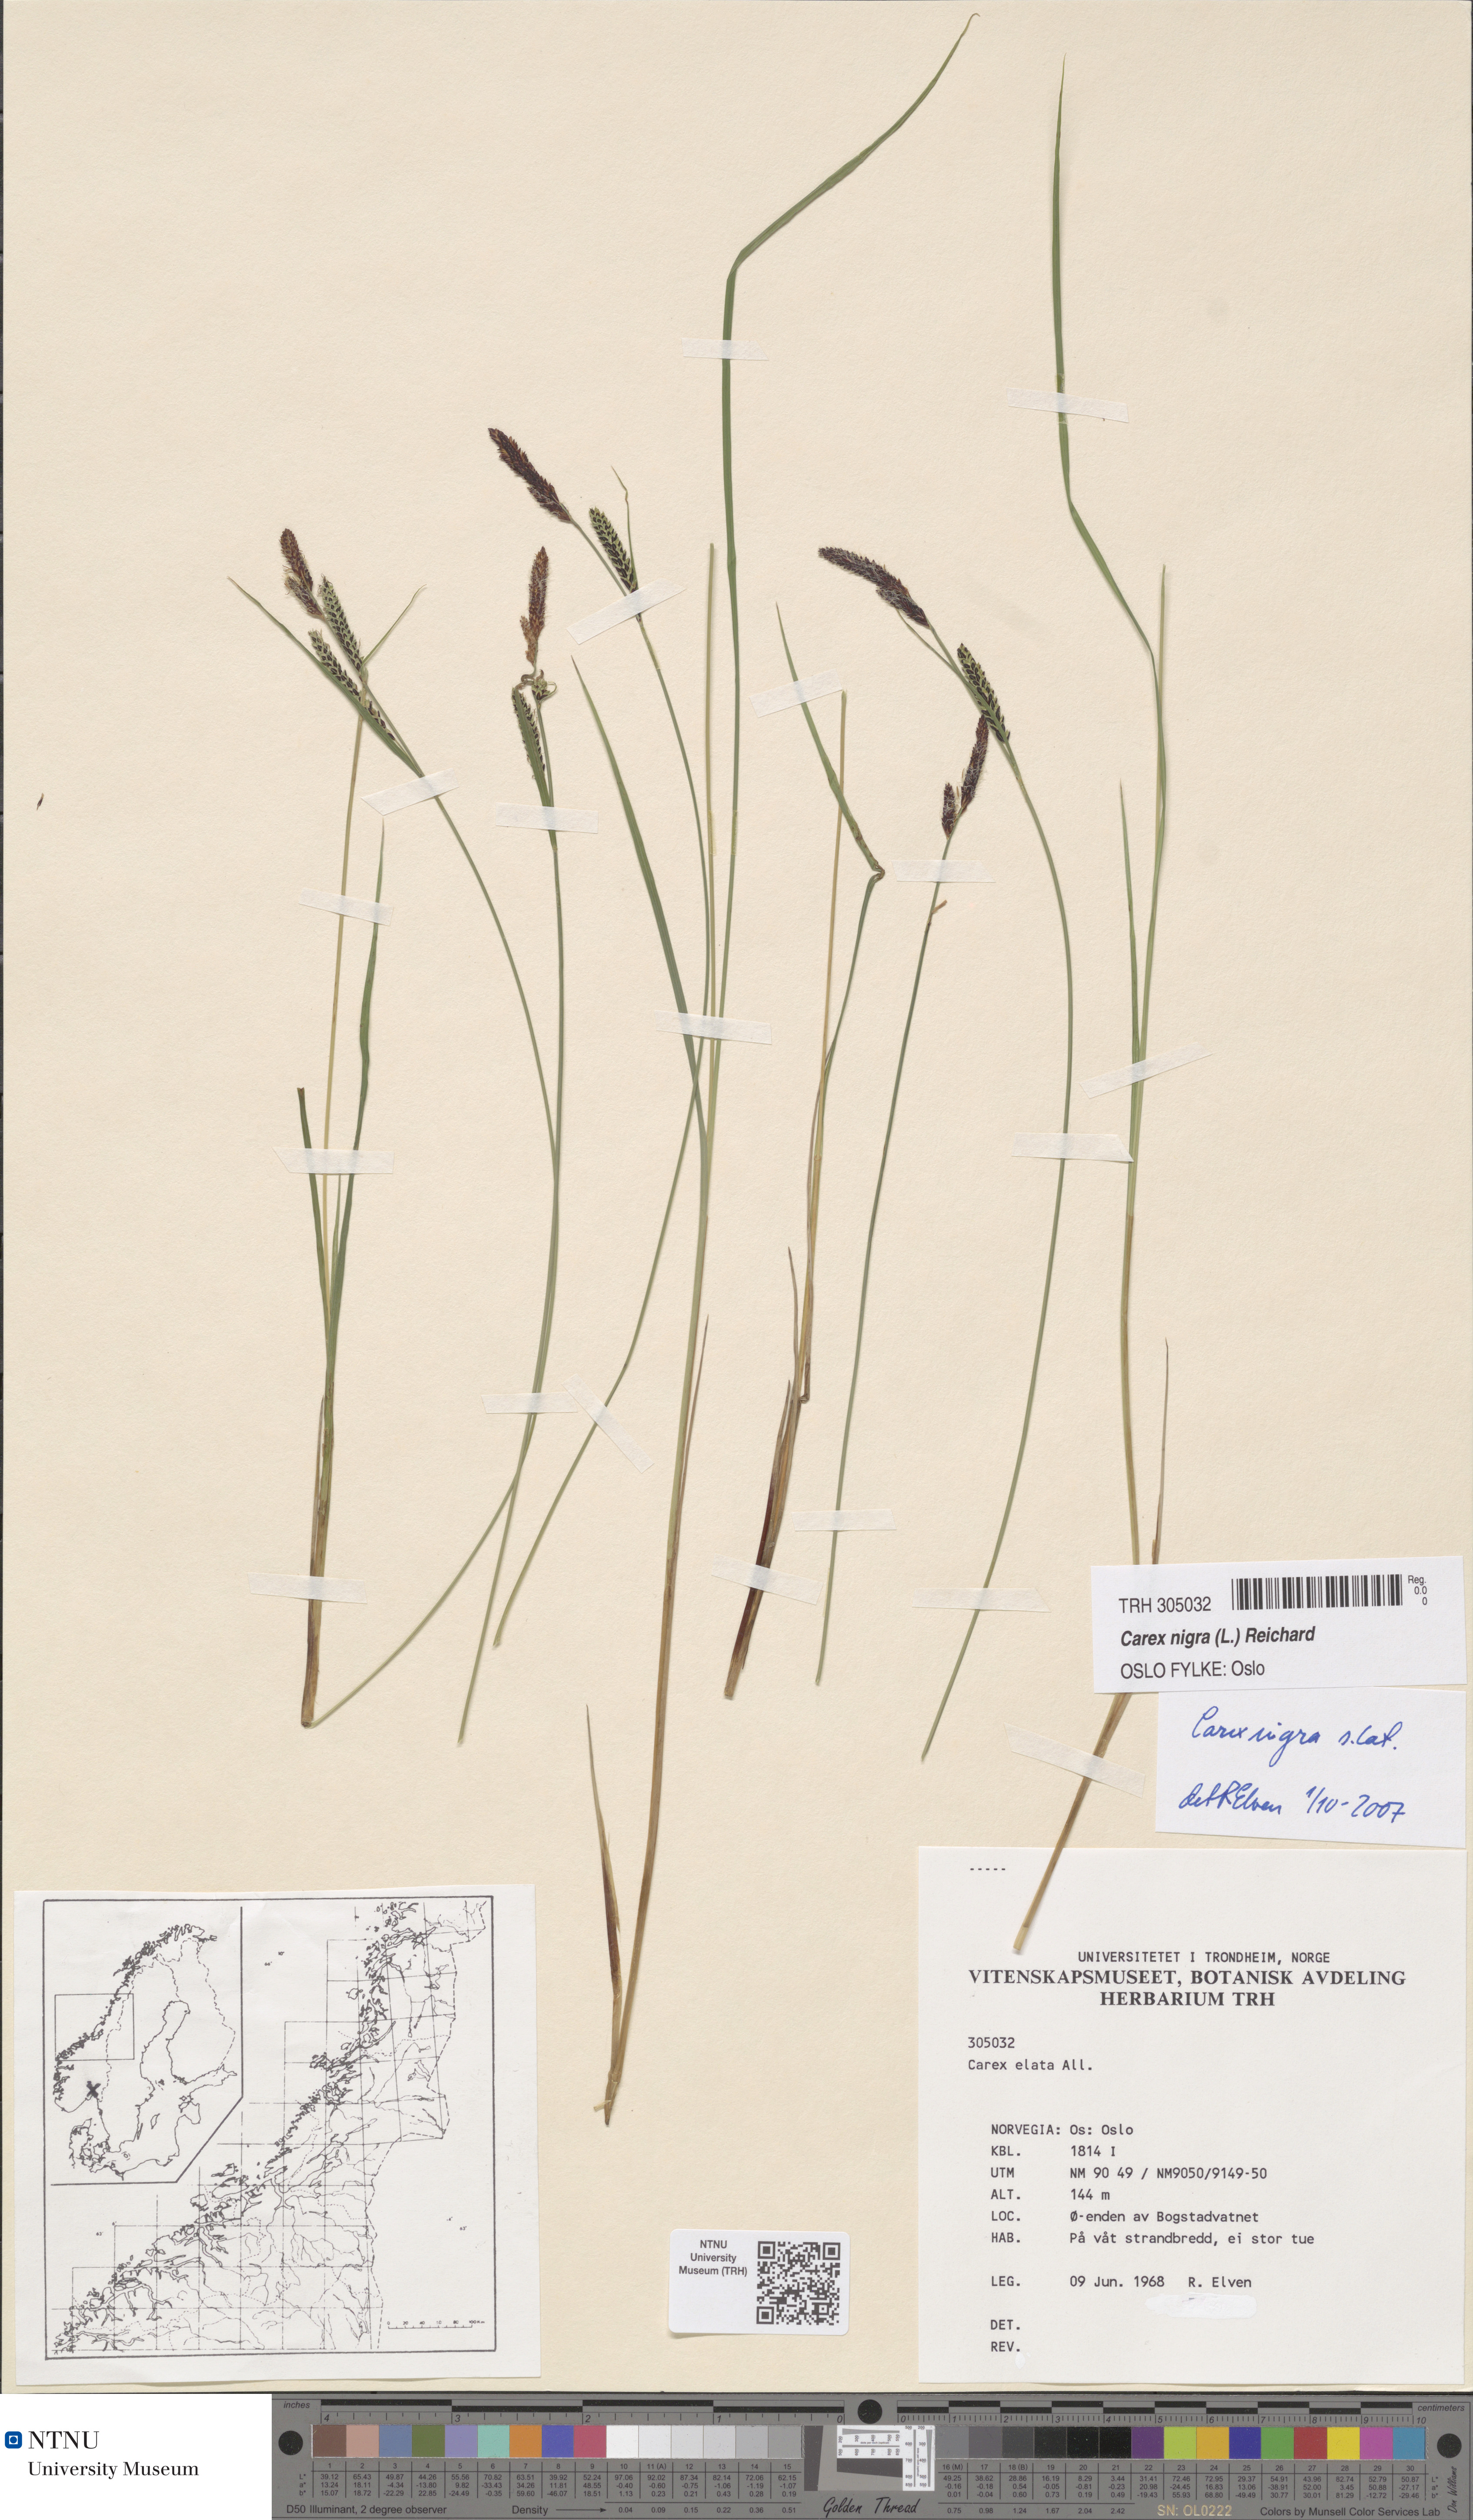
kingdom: Plantae
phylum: Tracheophyta
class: Liliopsida
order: Poales
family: Cyperaceae
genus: Carex
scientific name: Carex nigra
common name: Common sedge
